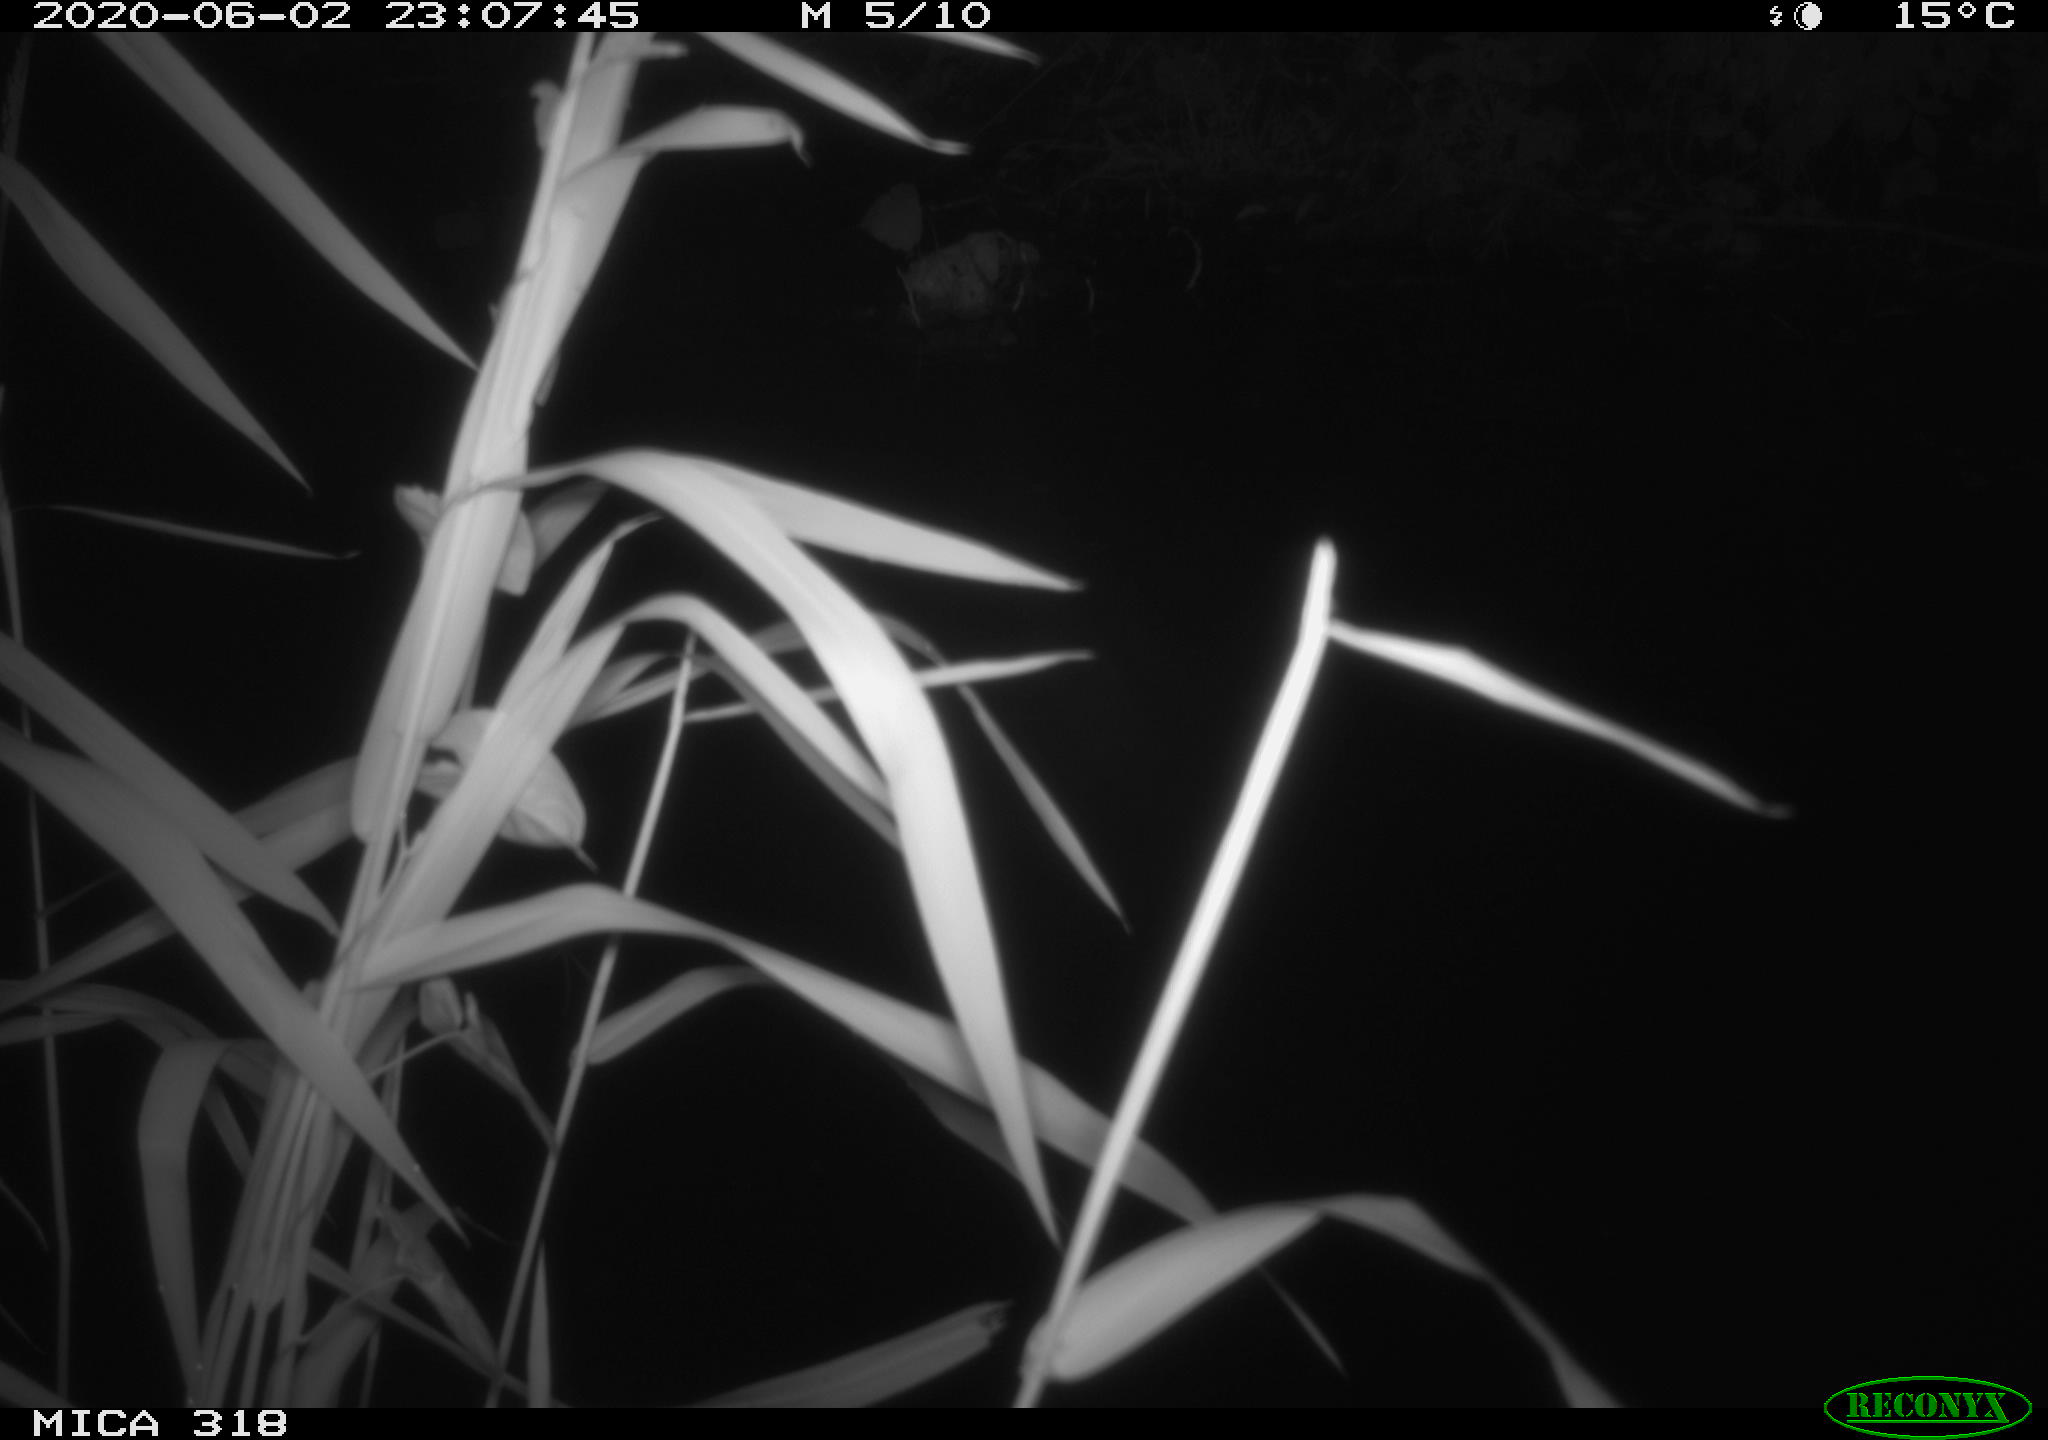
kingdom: Animalia
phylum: Chordata
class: Aves
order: Pelecaniformes
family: Ardeidae
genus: Ardea
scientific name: Ardea cinerea
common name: Grey heron
